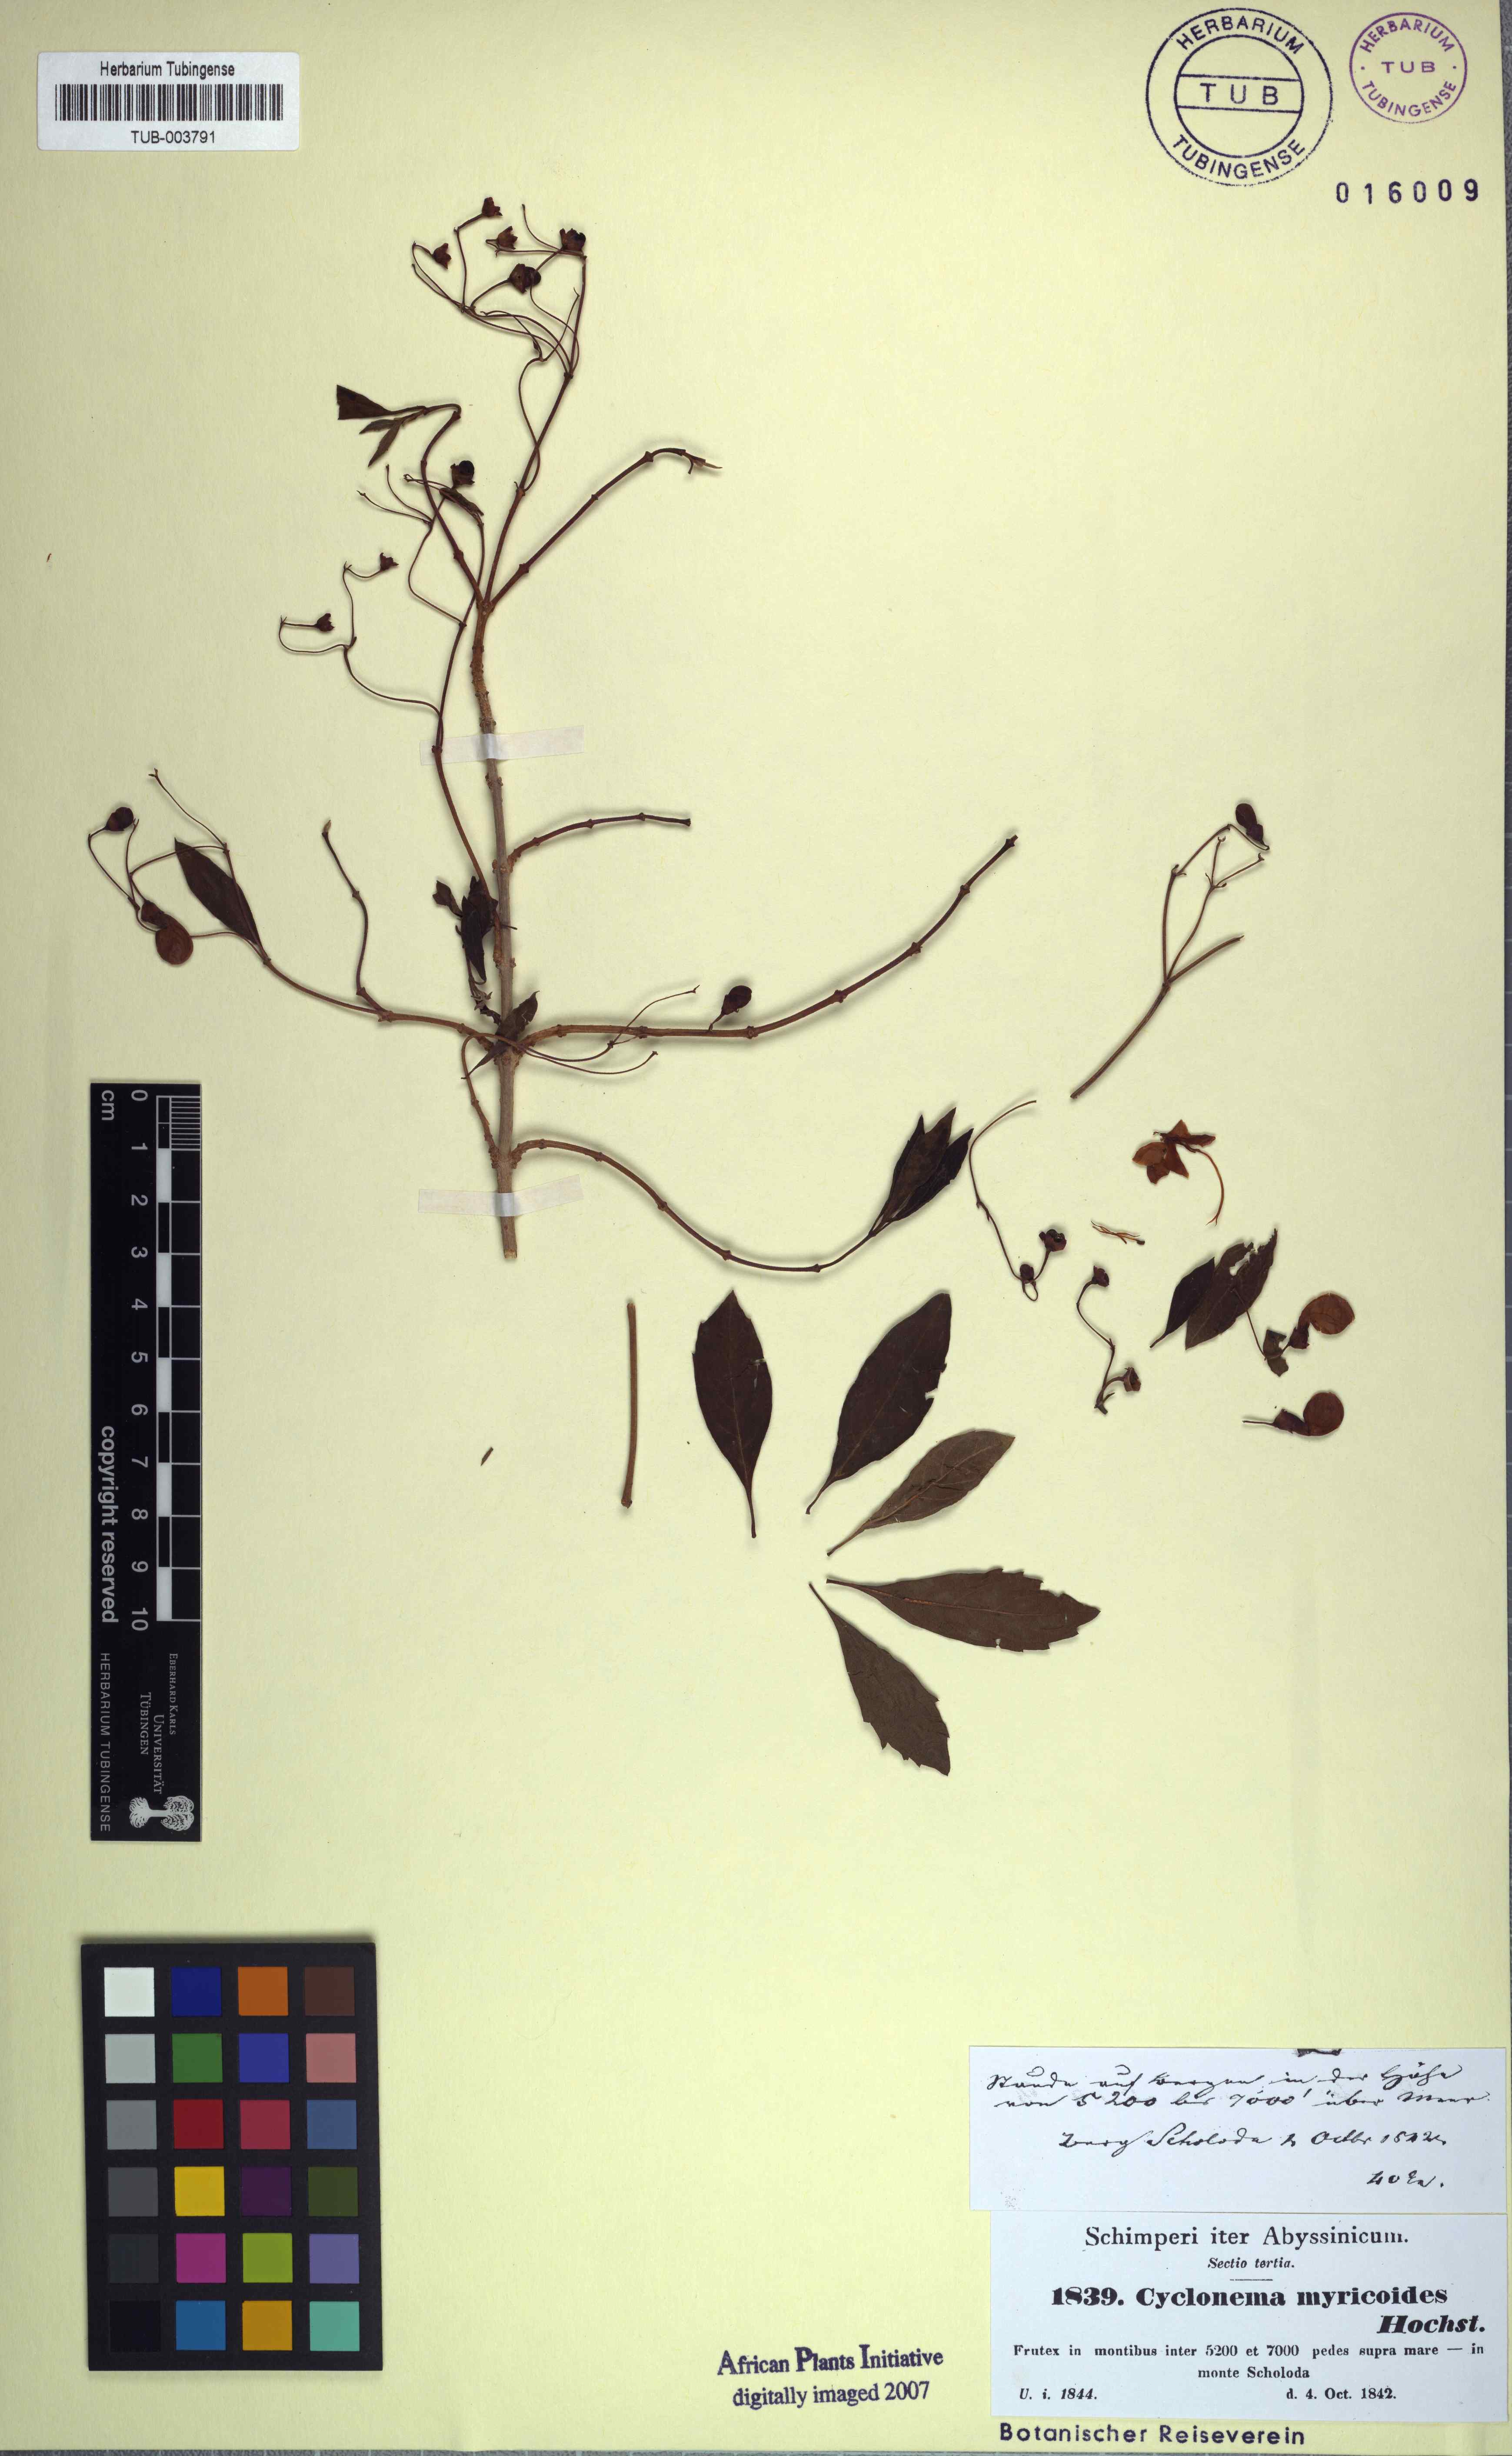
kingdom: Plantae
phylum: Tracheophyta
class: Magnoliopsida
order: Lamiales
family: Lamiaceae
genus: Rotheca
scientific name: Rotheca myricoides
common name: Cats-whiskers
